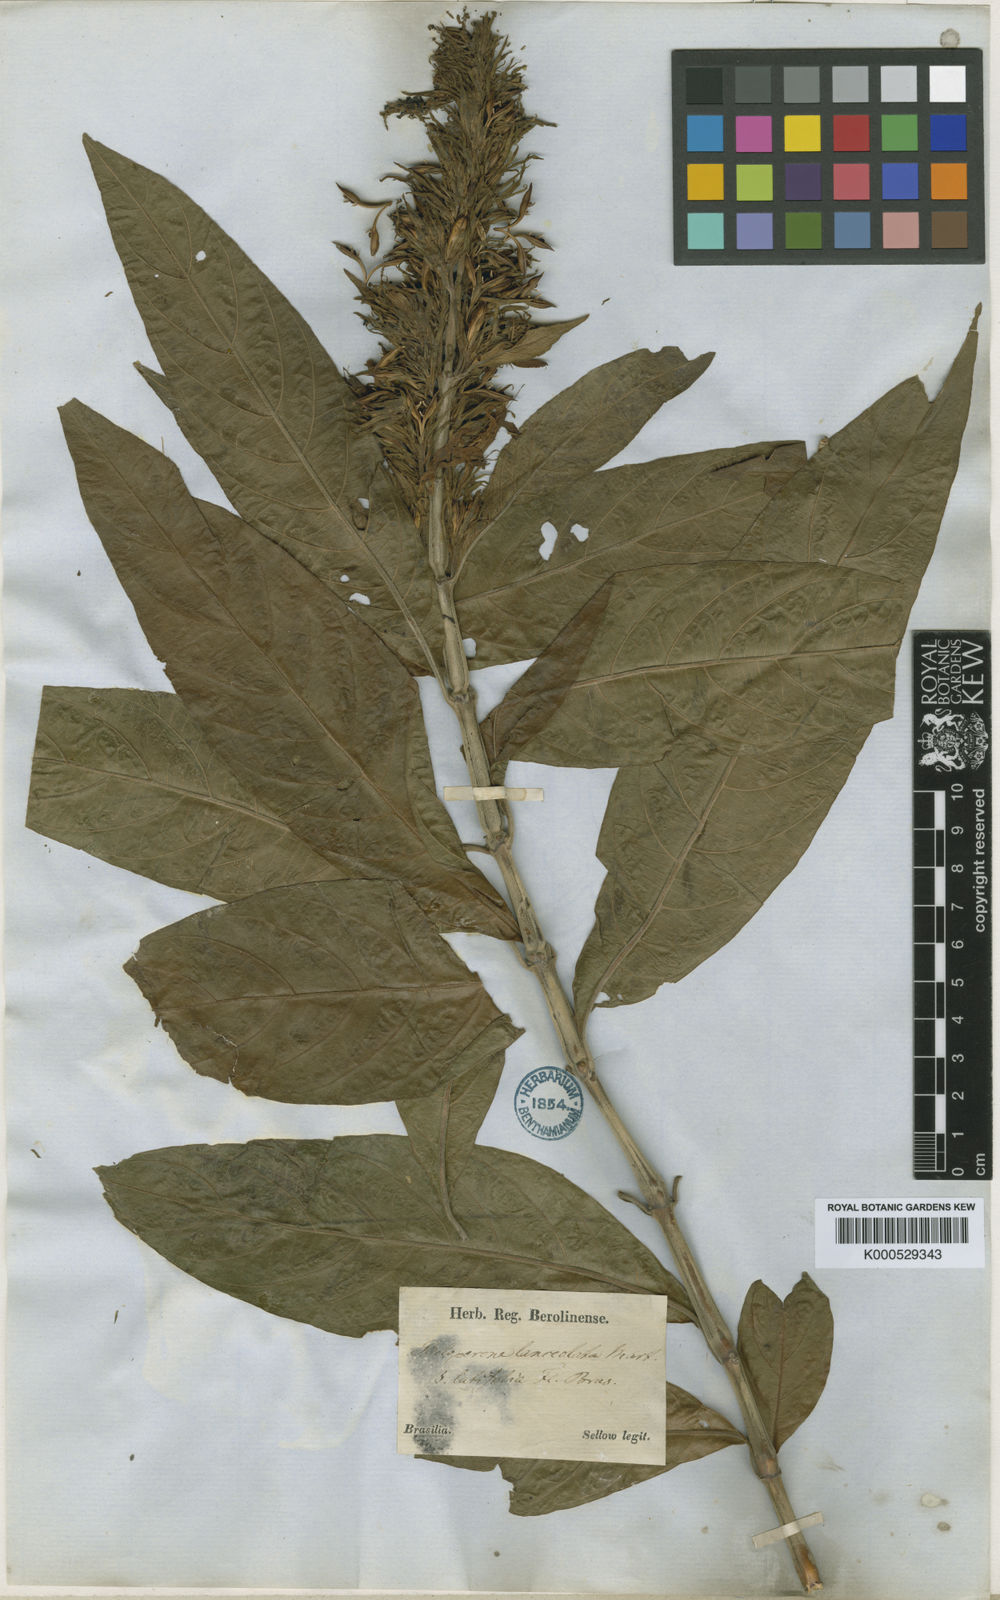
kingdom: Plantae
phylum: Tracheophyta
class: Magnoliopsida
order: Lamiales
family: Acanthaceae
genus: Justicia
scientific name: Justicia minensis
